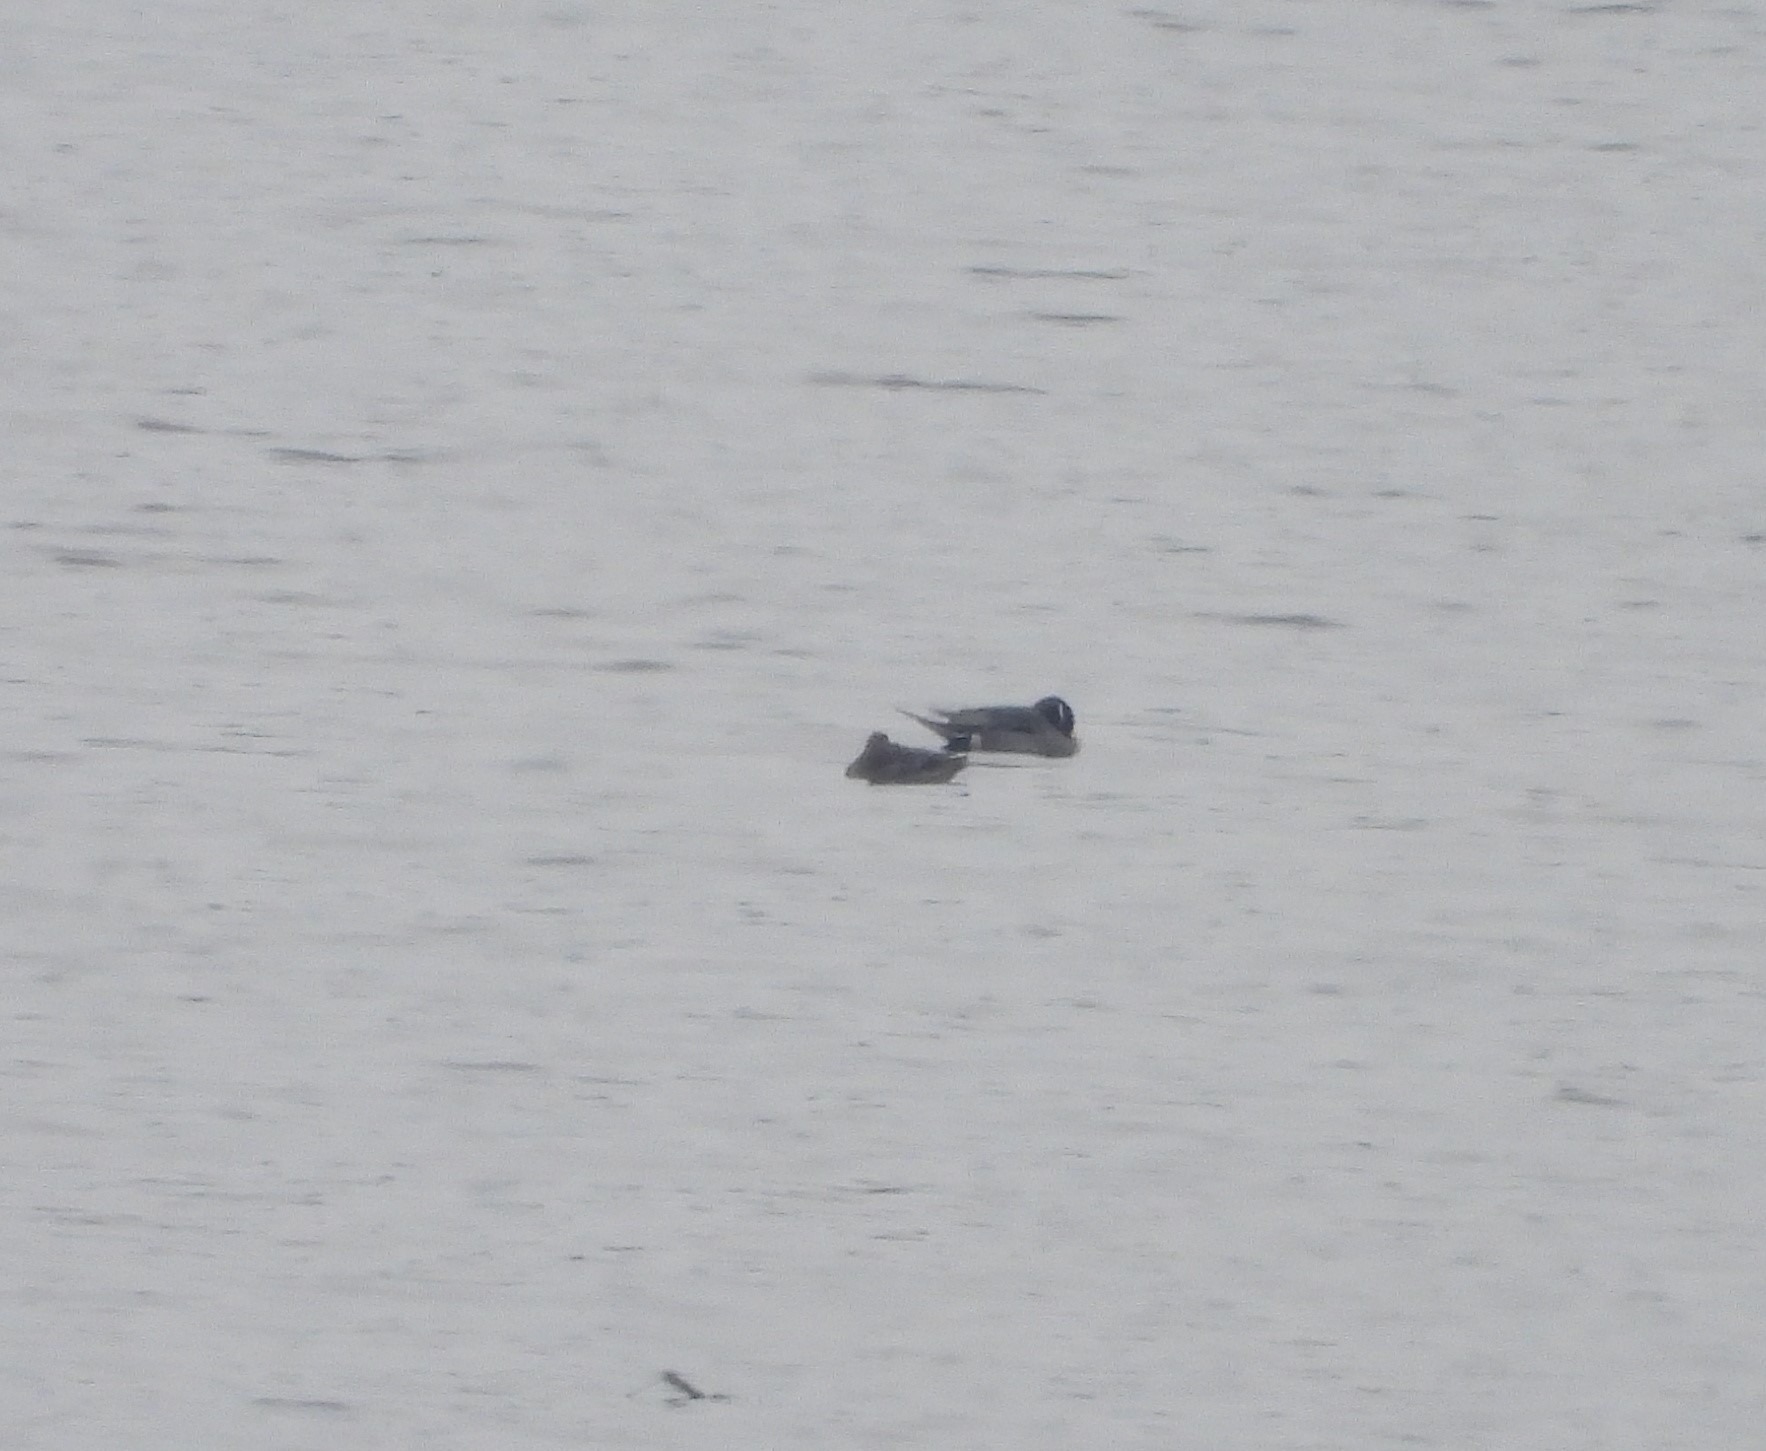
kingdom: Animalia
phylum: Chordata
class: Aves
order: Anseriformes
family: Anatidae
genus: Anas
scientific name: Anas acuta
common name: Spidsand
